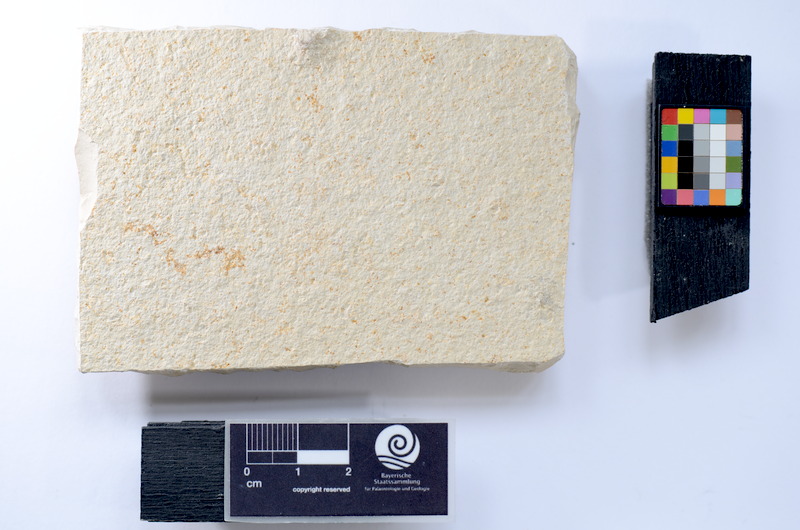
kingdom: Animalia
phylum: Chordata
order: Elopiformes
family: Anaethalionidae
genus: Anaethalion
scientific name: Anaethalion knorri
